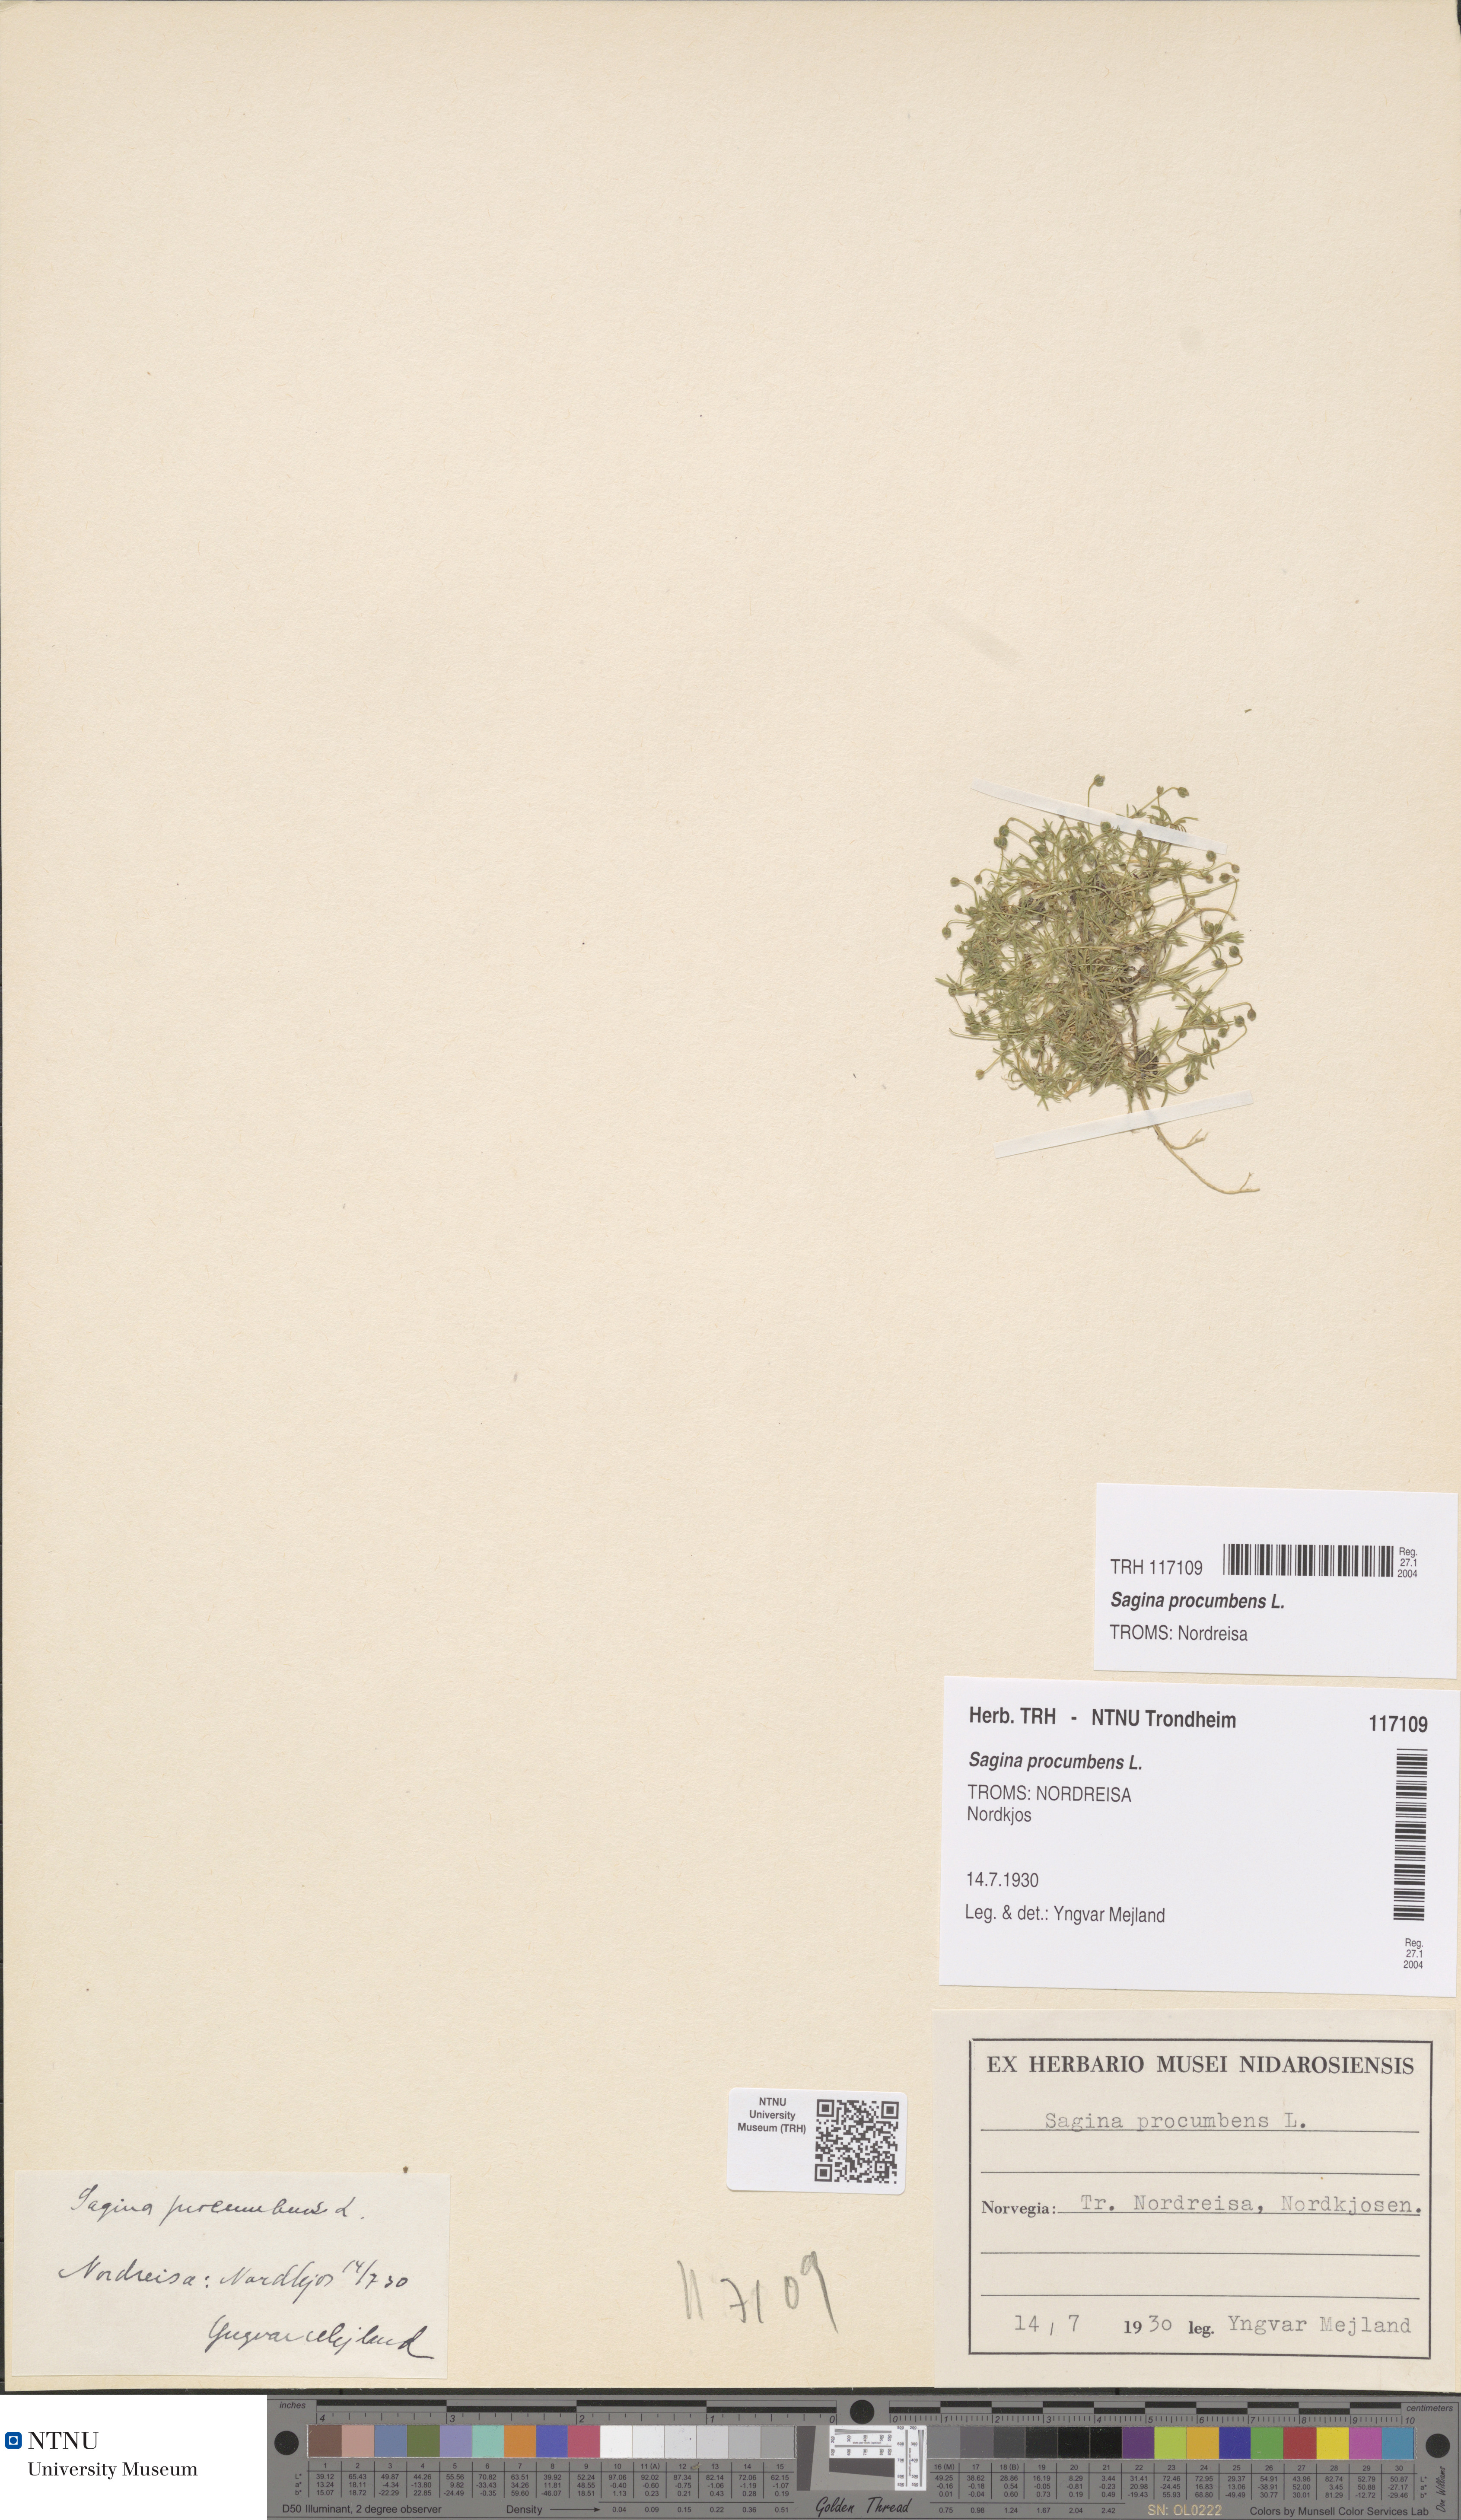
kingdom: Plantae
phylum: Tracheophyta
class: Magnoliopsida
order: Caryophyllales
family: Caryophyllaceae
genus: Sagina
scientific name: Sagina procumbens
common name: Procumbent pearlwort
